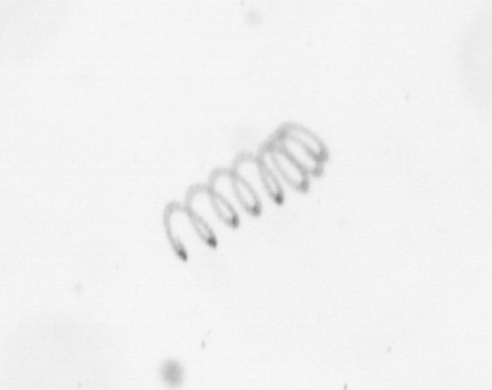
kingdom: Chromista
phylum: Ochrophyta
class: Bacillariophyceae
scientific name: Bacillariophyceae
